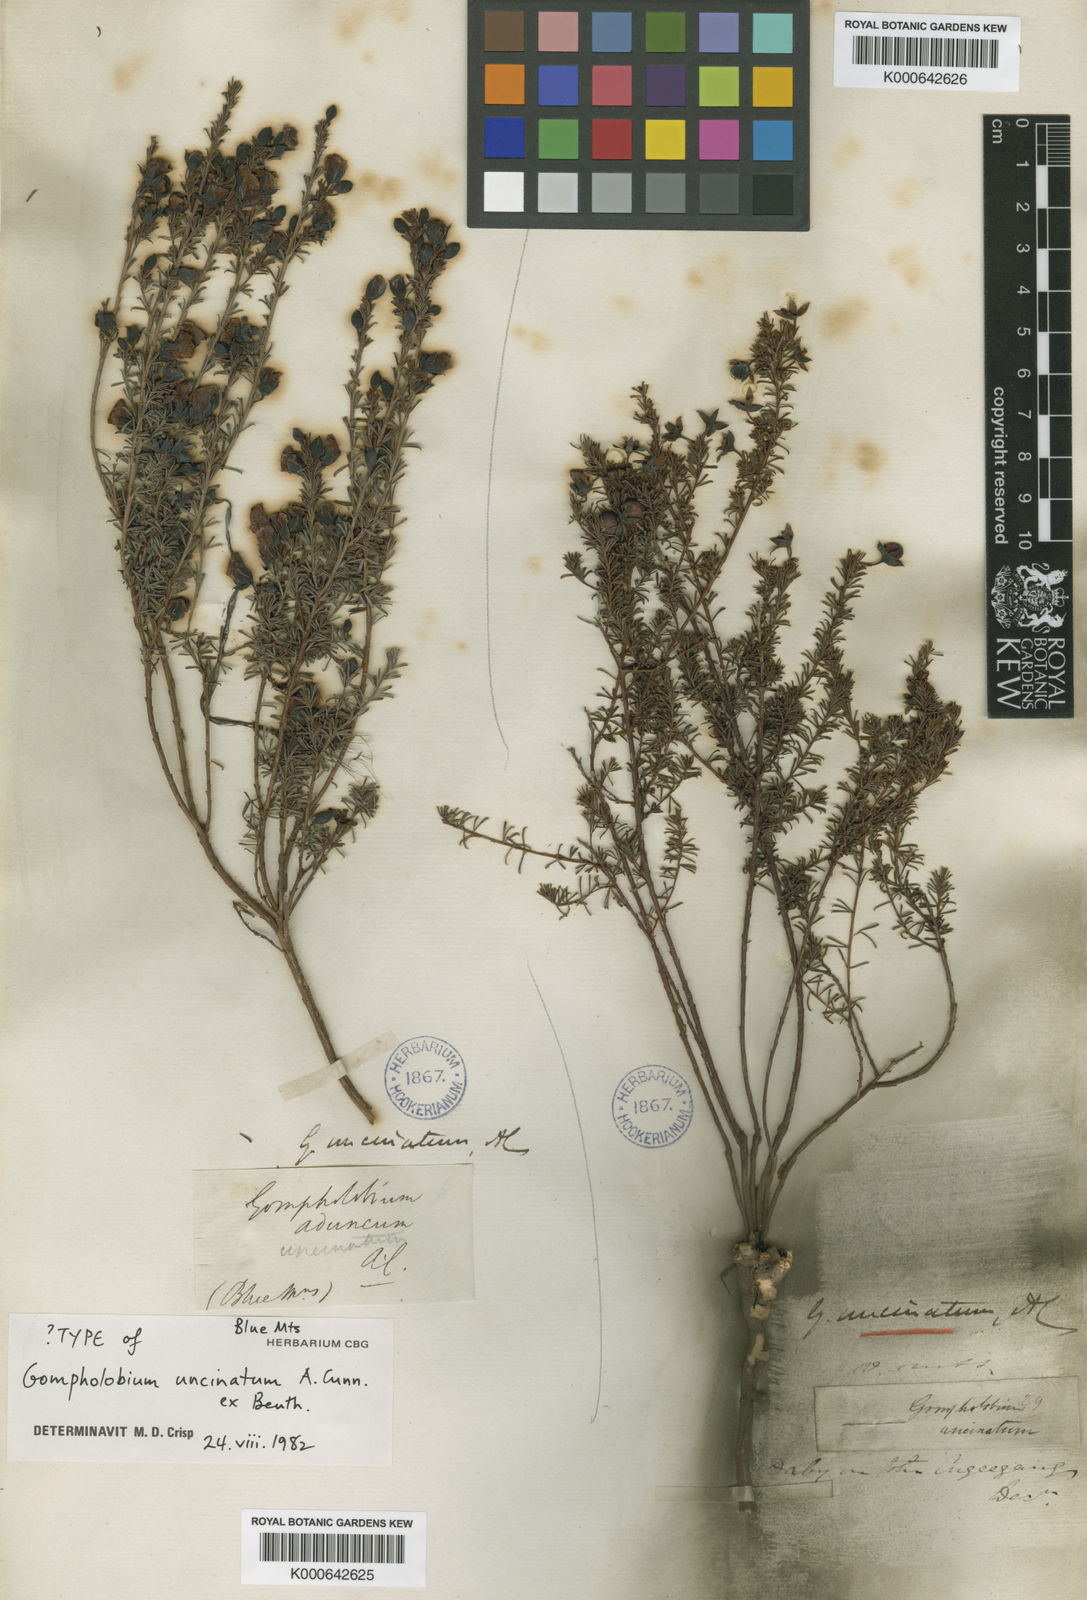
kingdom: Plantae
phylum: Tracheophyta
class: Magnoliopsida
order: Fabales
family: Fabaceae
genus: Gompholobium
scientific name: Gompholobium uncinatum
